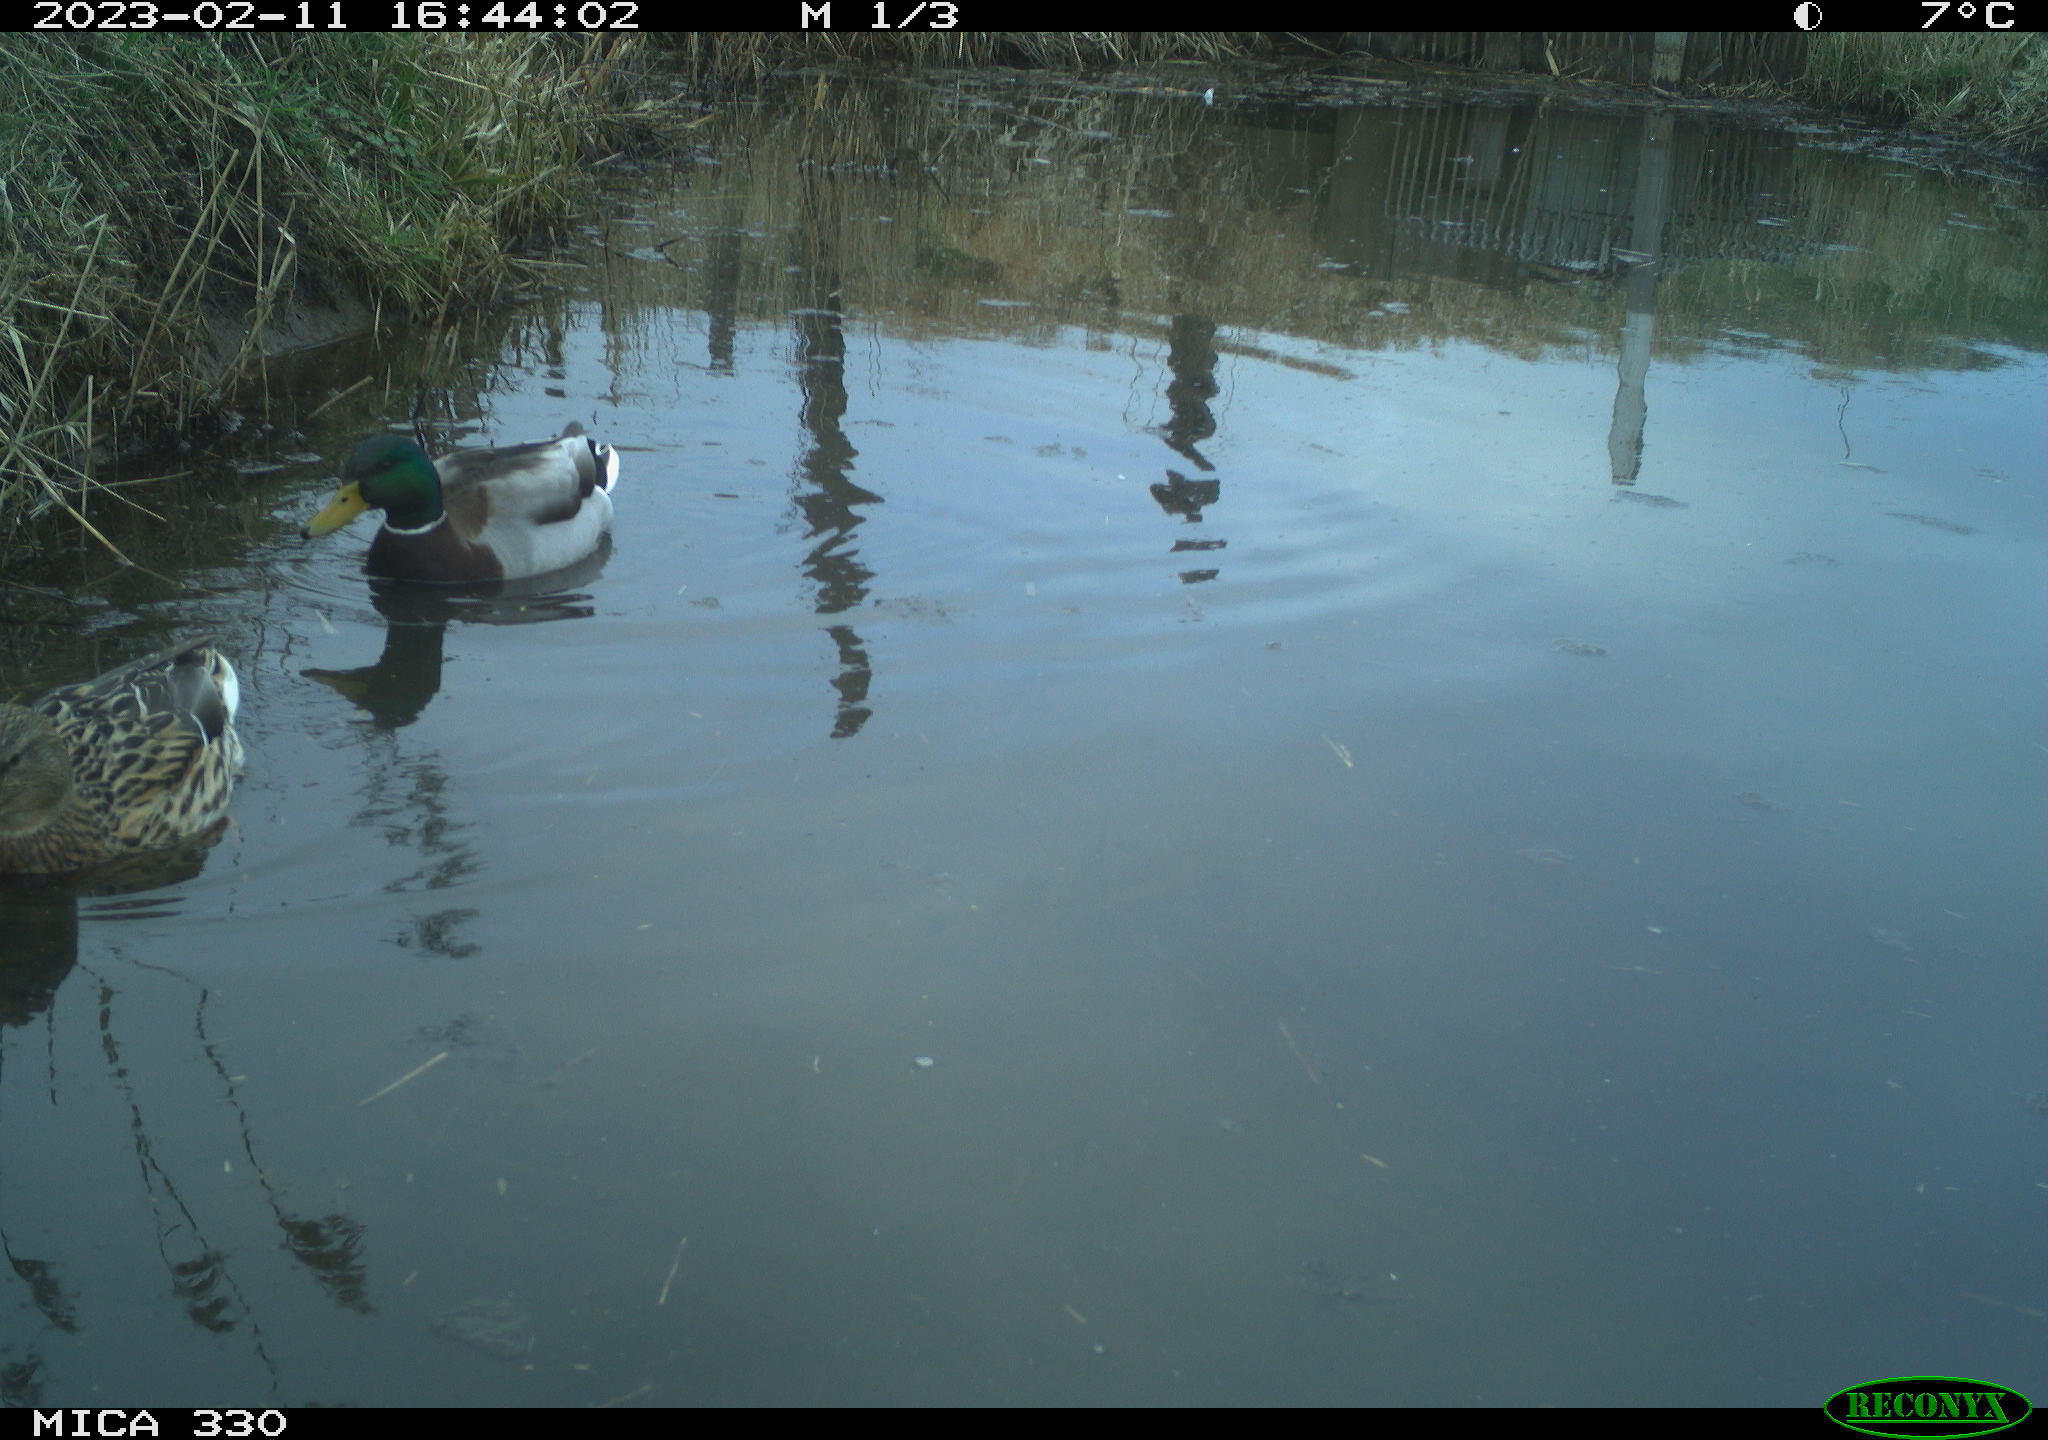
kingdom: Animalia
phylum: Chordata
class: Aves
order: Anseriformes
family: Anatidae
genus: Anas
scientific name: Anas
